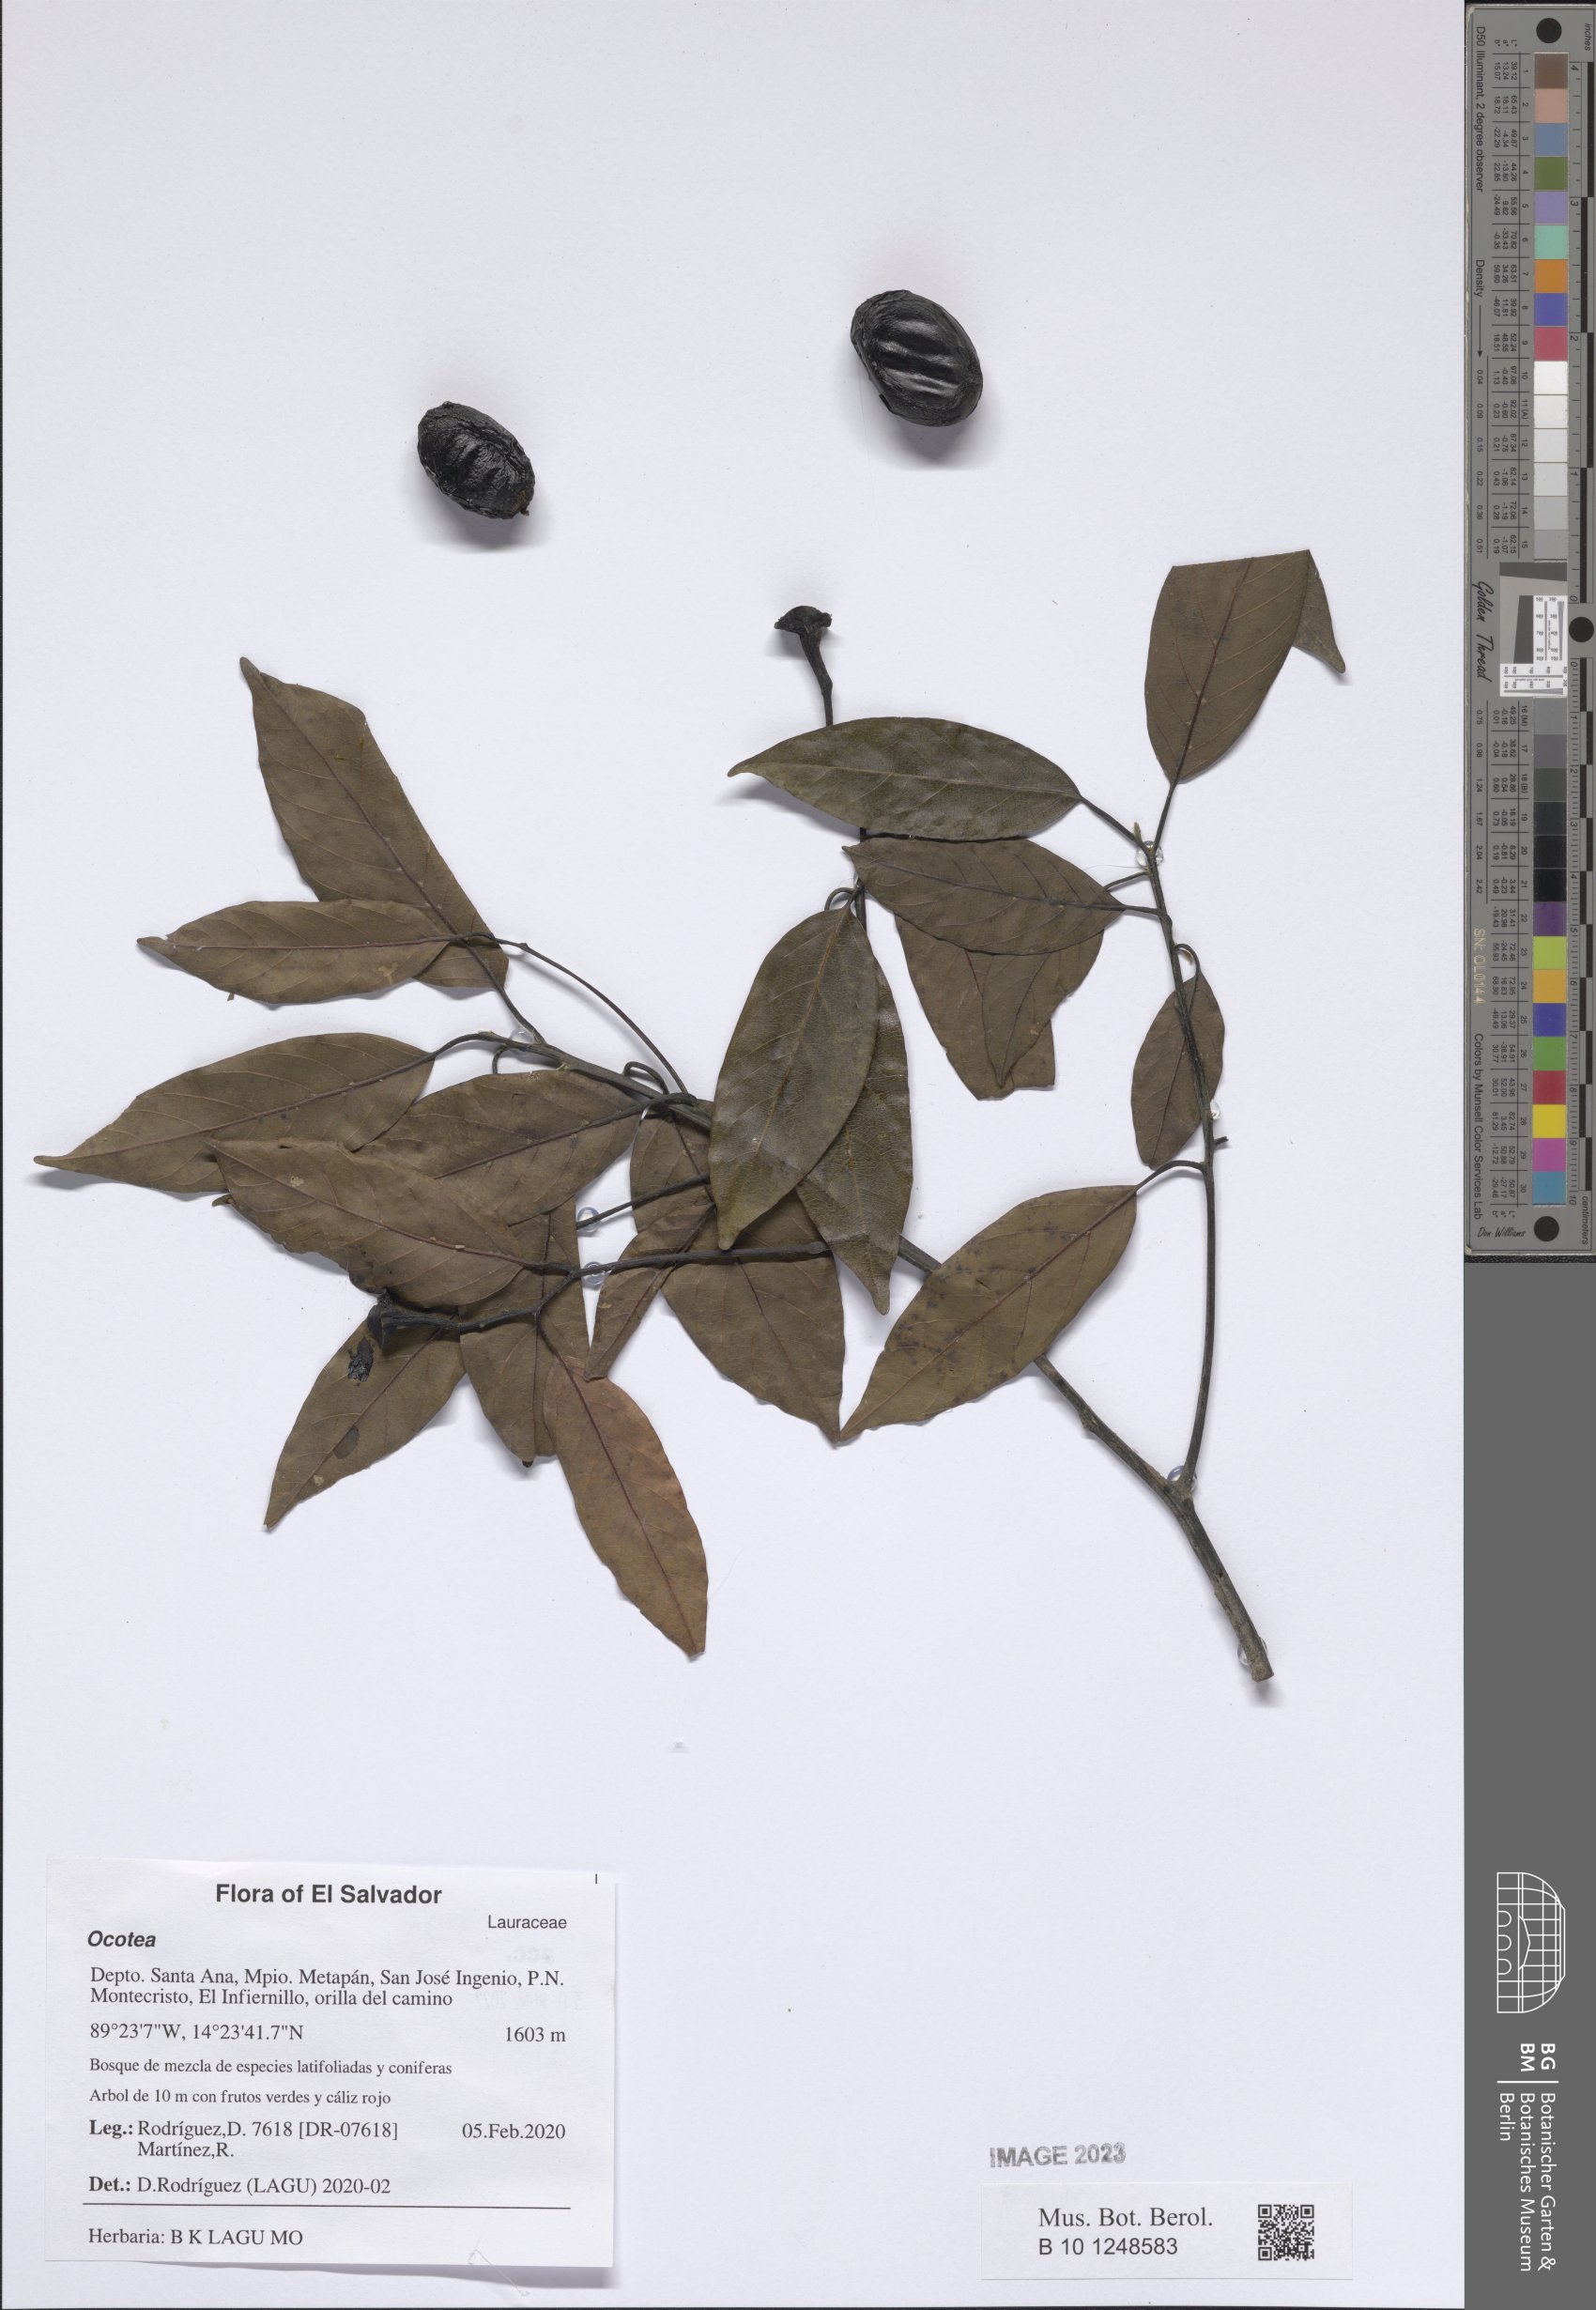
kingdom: Plantae
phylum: Tracheophyta
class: Magnoliopsida
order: Laurales
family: Lauraceae
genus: Ocotea
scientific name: Ocotea
